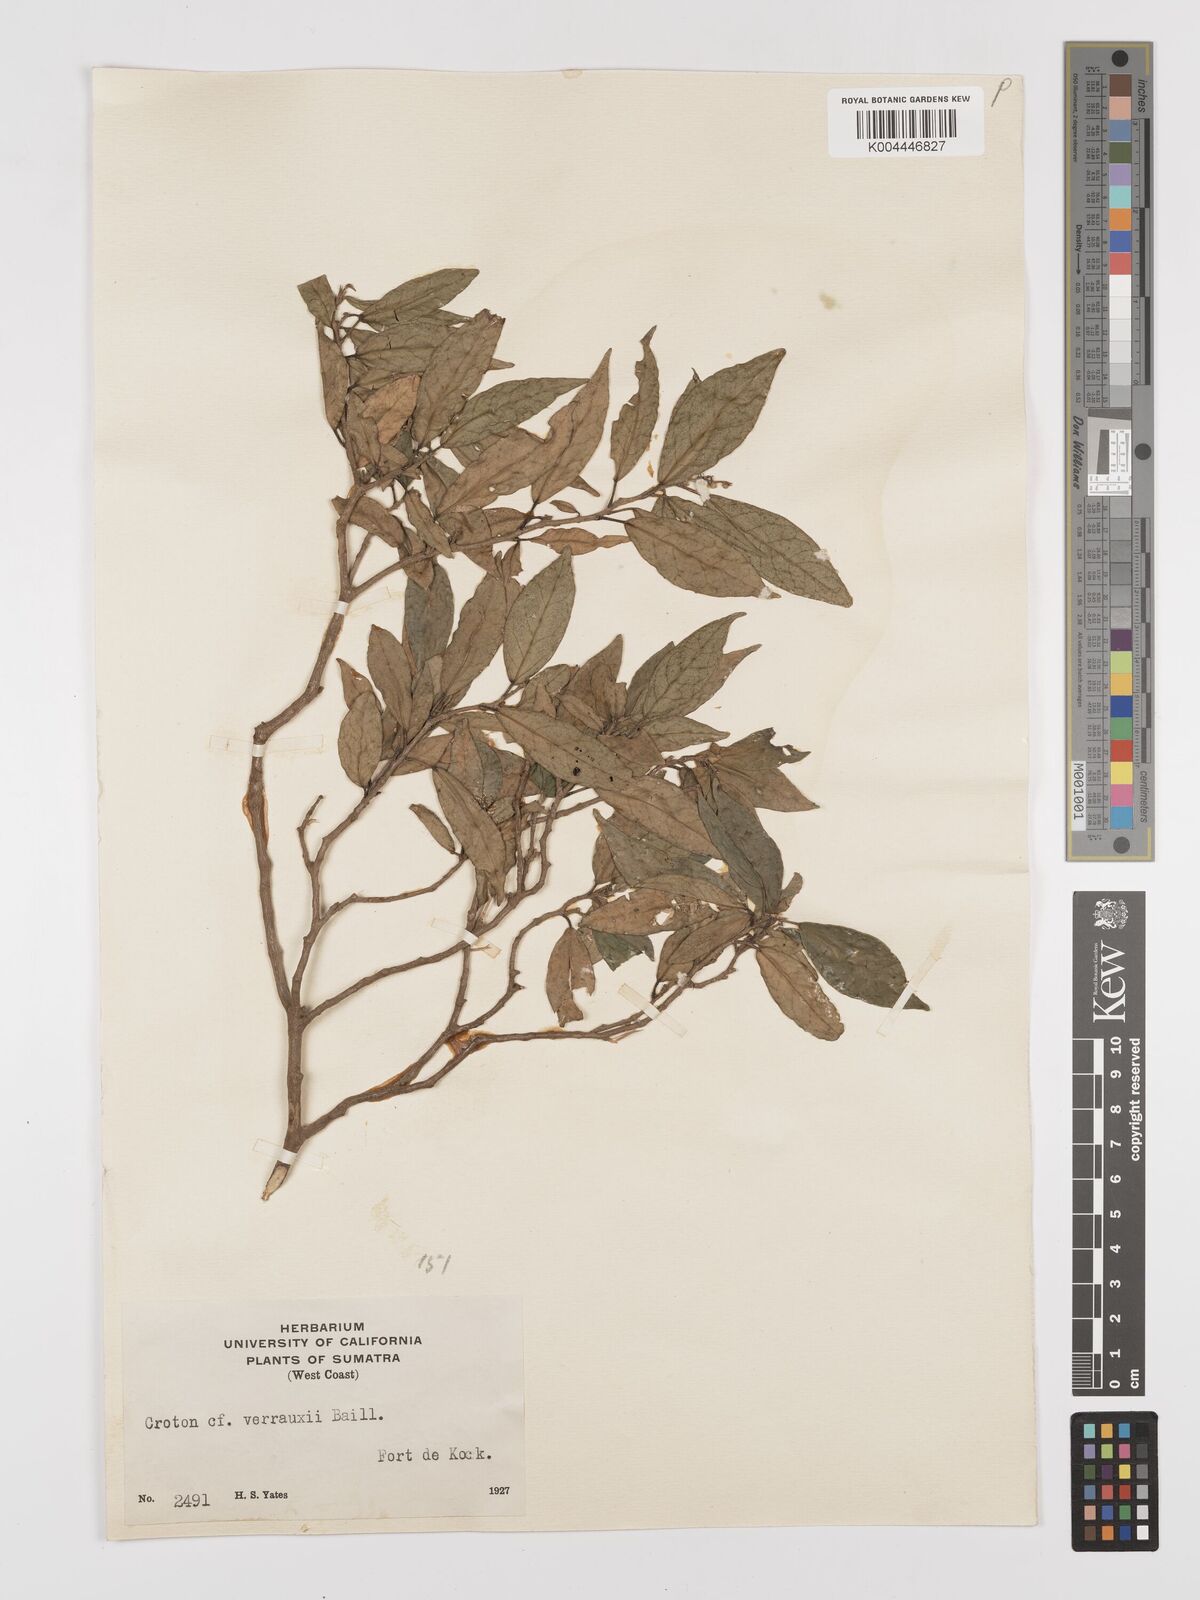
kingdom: Plantae
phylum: Tracheophyta
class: Magnoliopsida
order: Malpighiales
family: Euphorbiaceae
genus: Croton
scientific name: Croton
